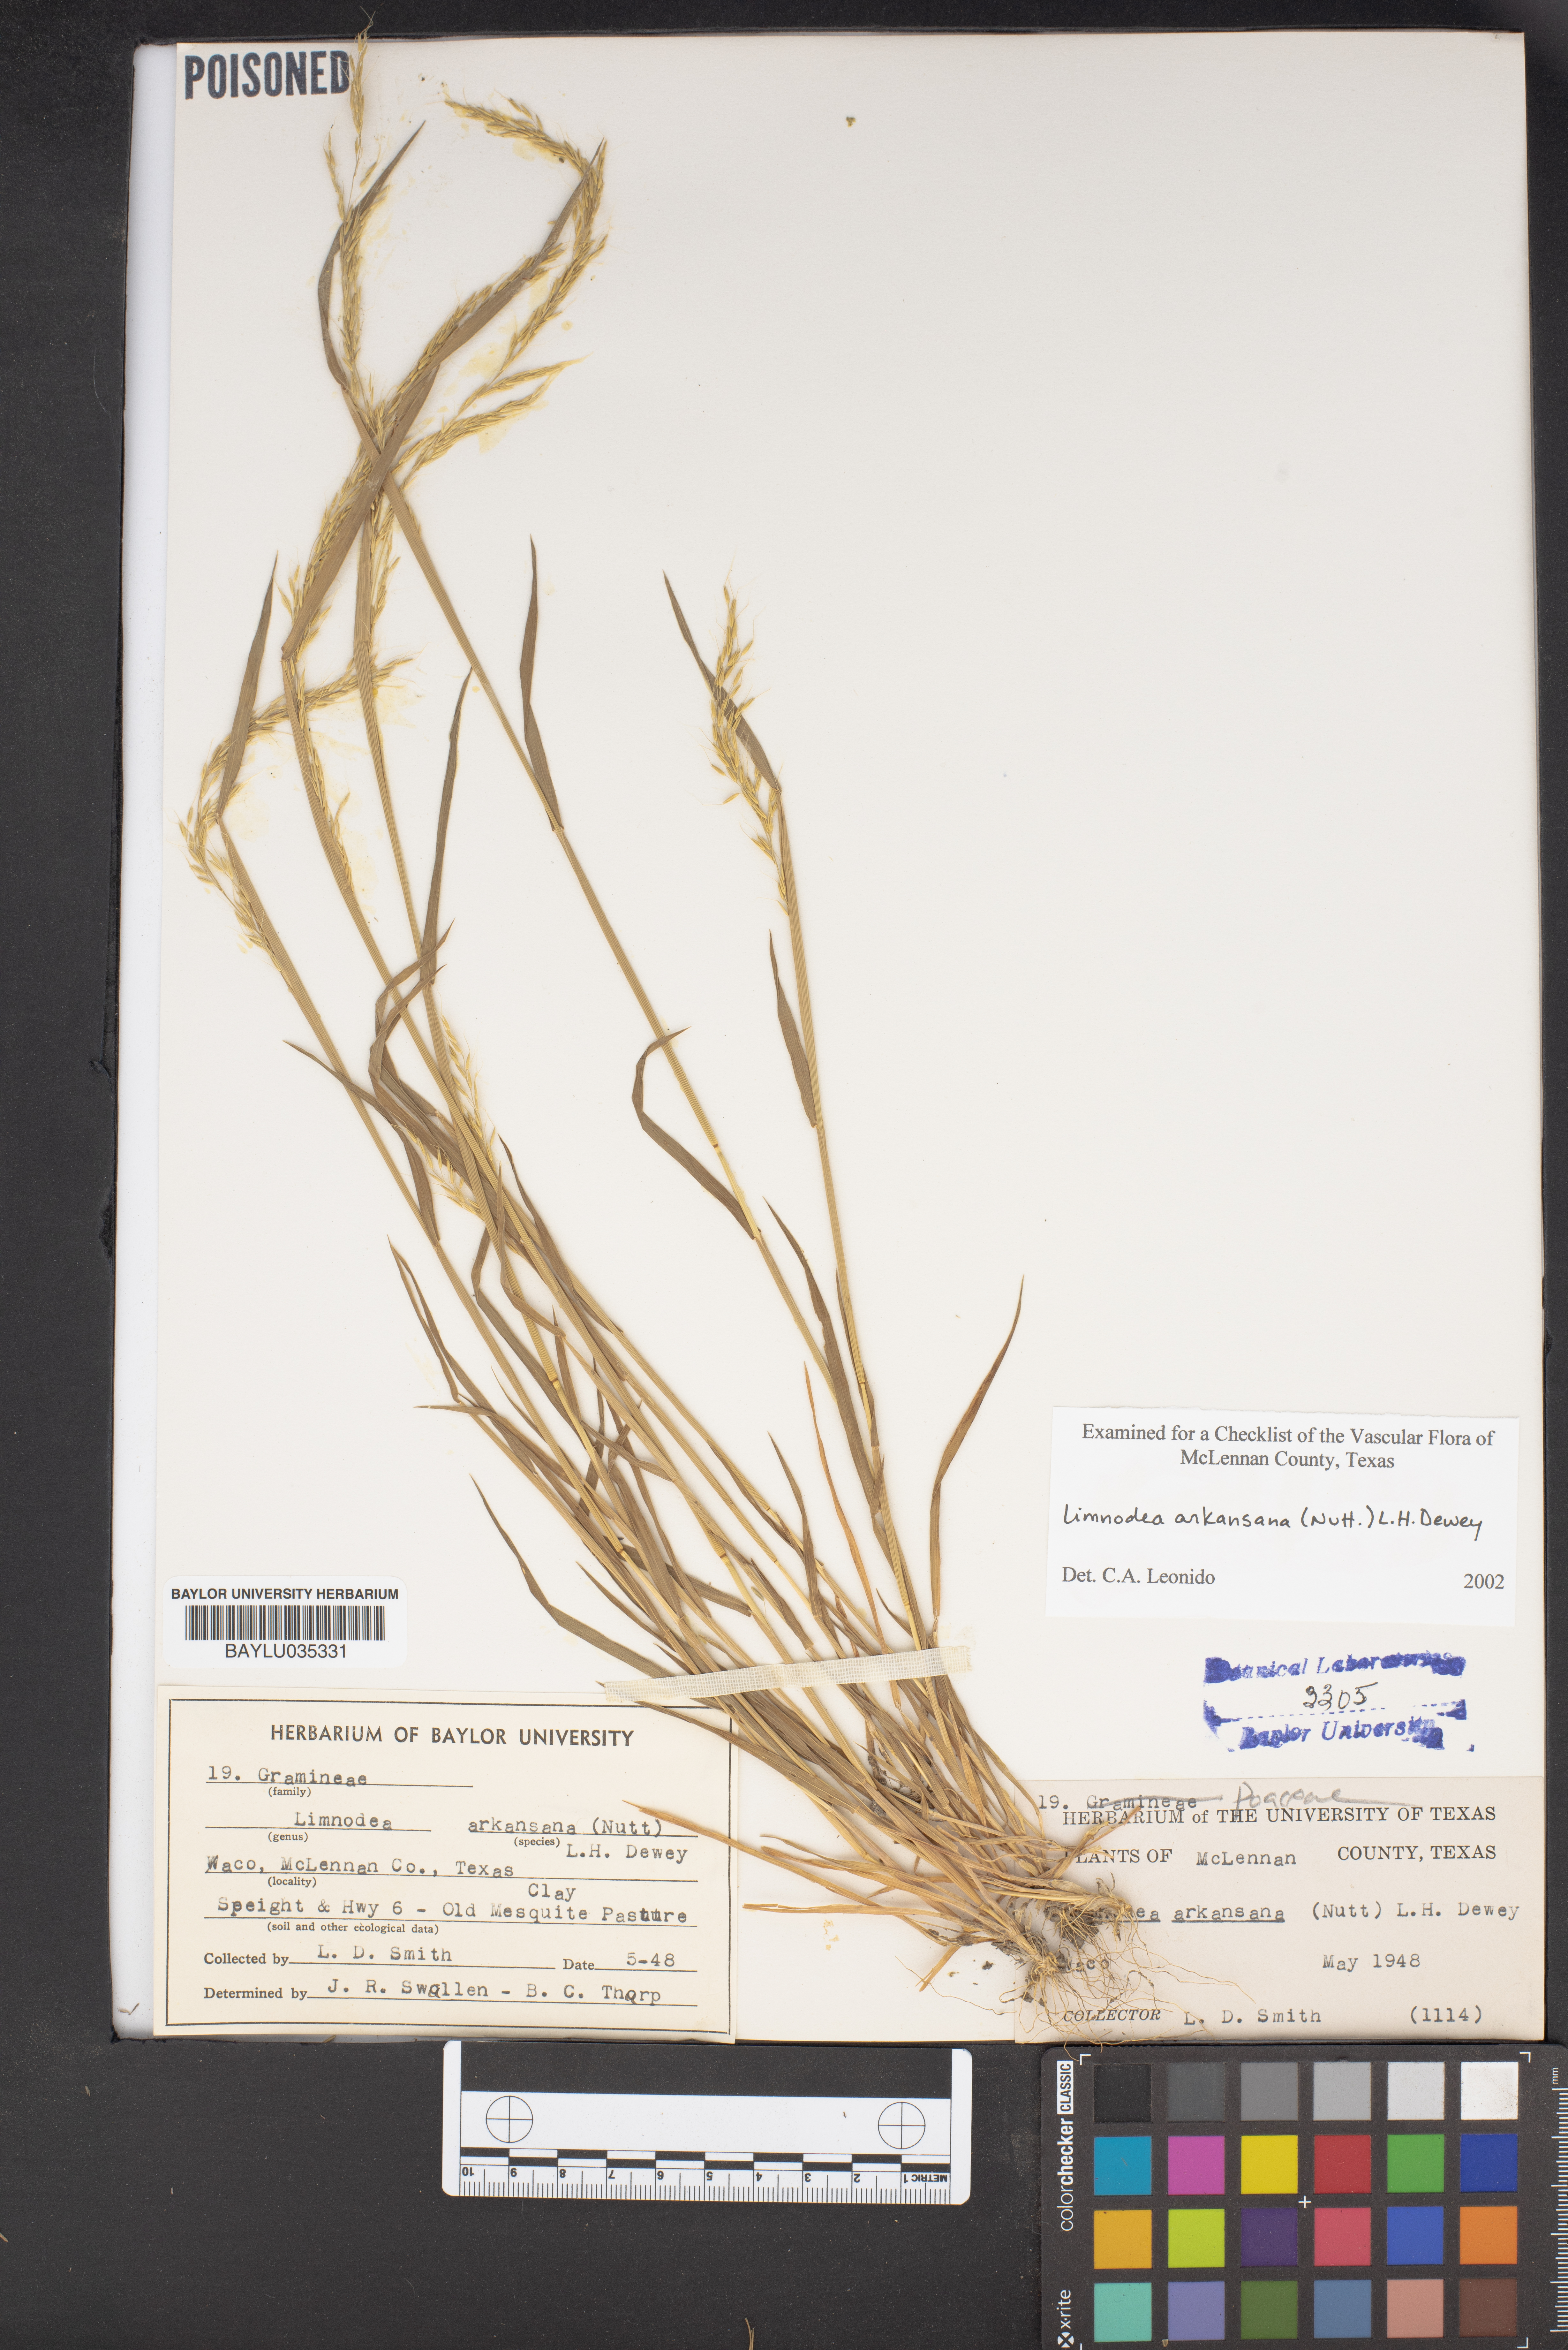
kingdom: Plantae
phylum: Tracheophyta
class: Liliopsida
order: Poales
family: Poaceae
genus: Limnodea
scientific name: Limnodea arkansana
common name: Ozark-grass
